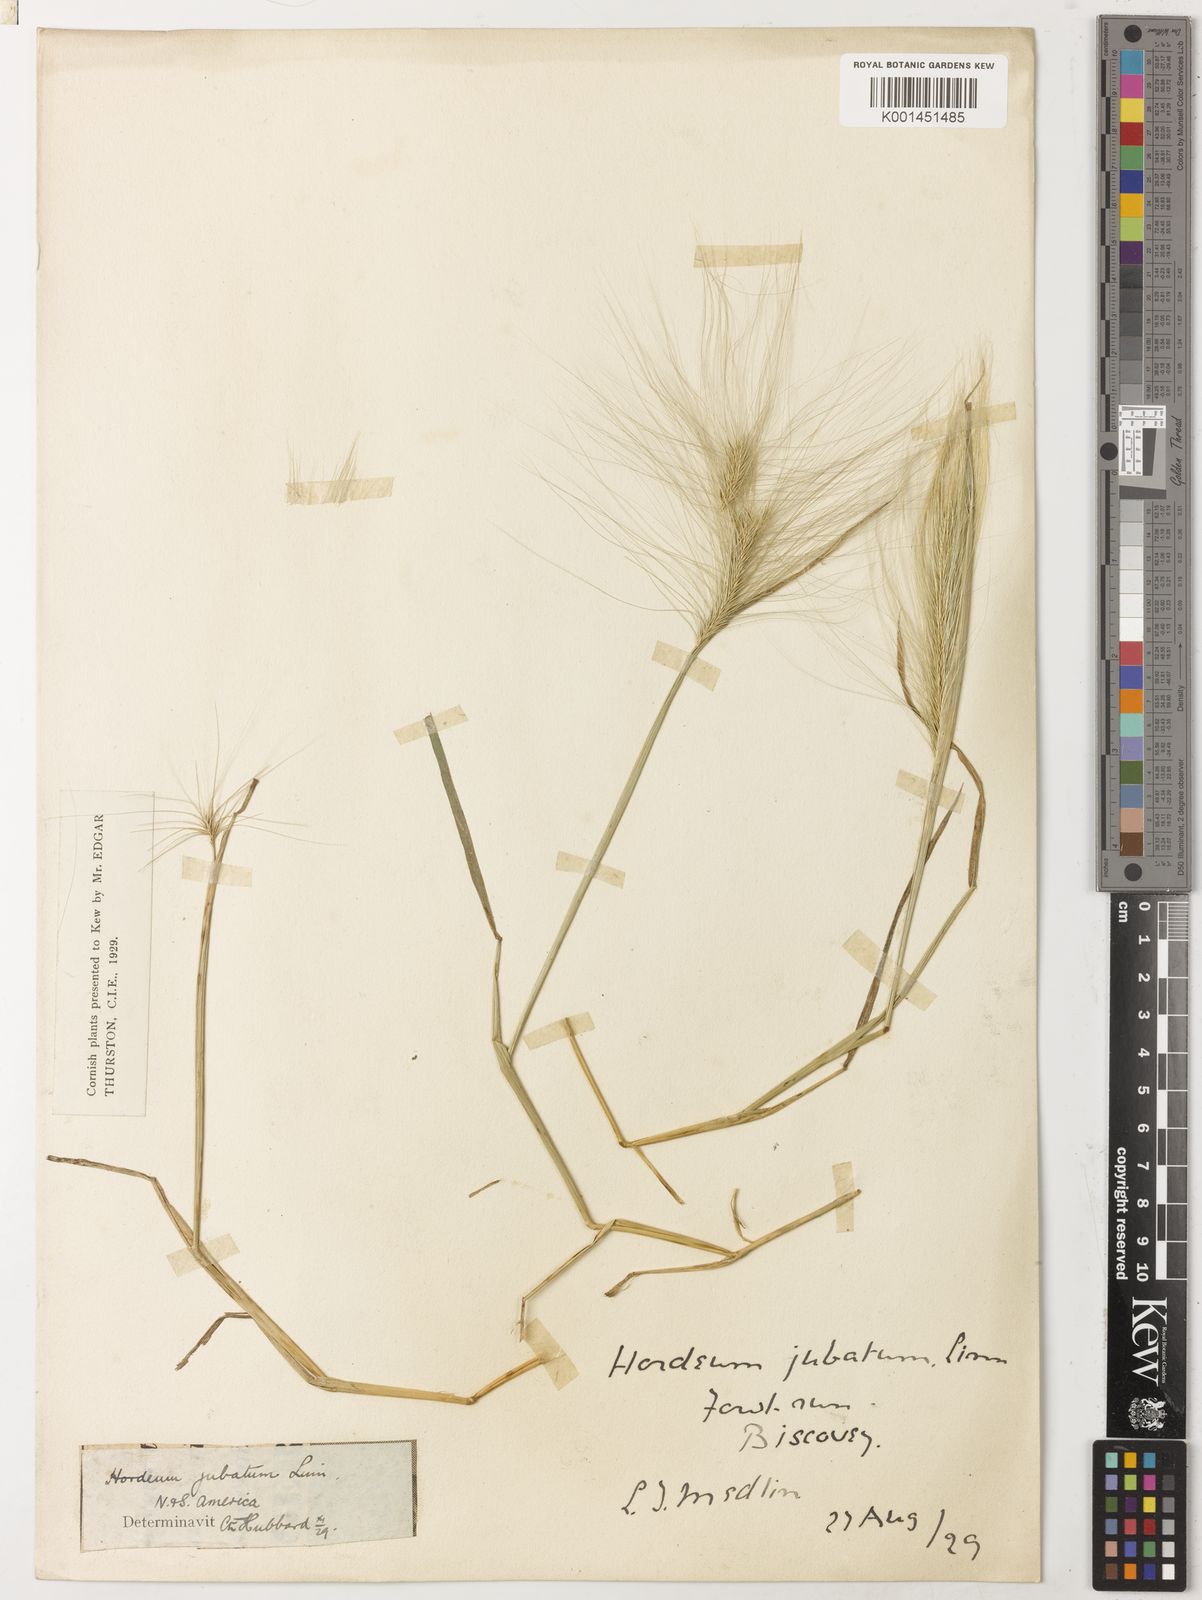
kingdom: Plantae
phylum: Tracheophyta
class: Liliopsida
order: Poales
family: Poaceae
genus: Hordeum
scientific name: Hordeum jubatum
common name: Foxtail barley
